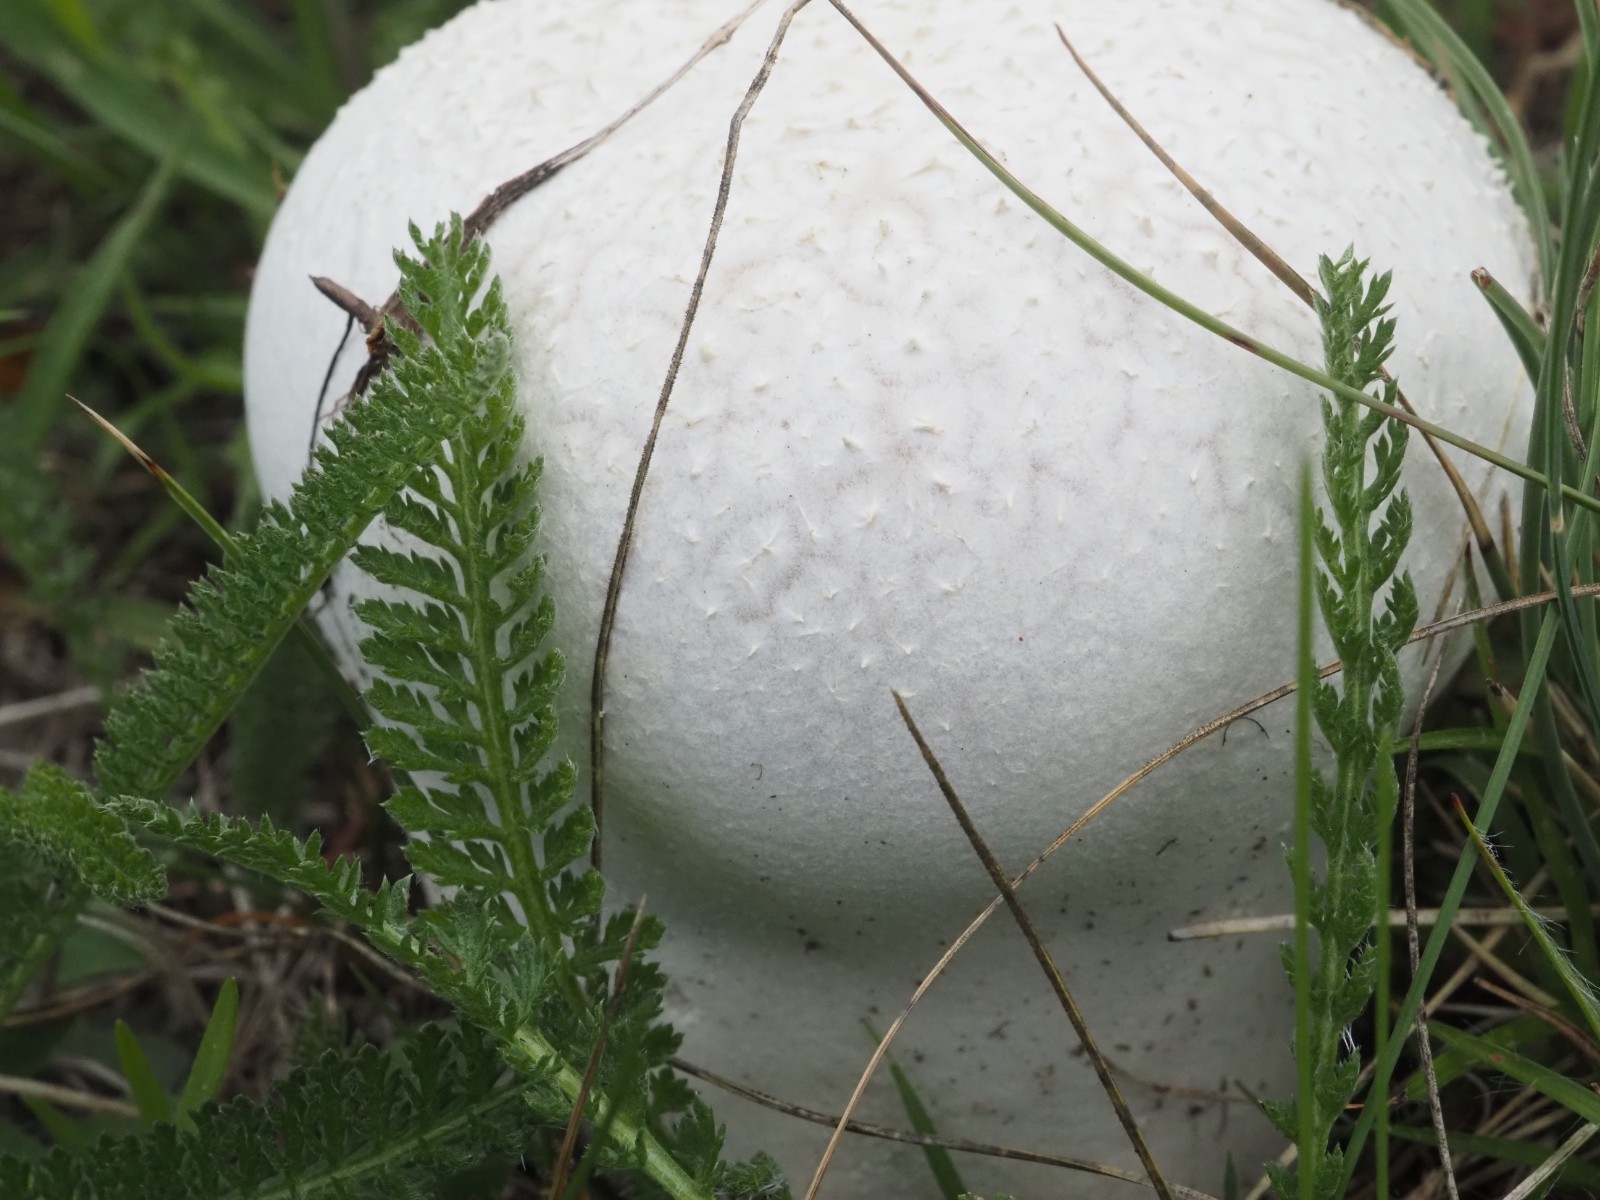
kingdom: Fungi
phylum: Basidiomycota
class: Agaricomycetes
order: Agaricales
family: Lycoperdaceae
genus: Bovistella
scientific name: Bovistella utriformis
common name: skællet støvbold
